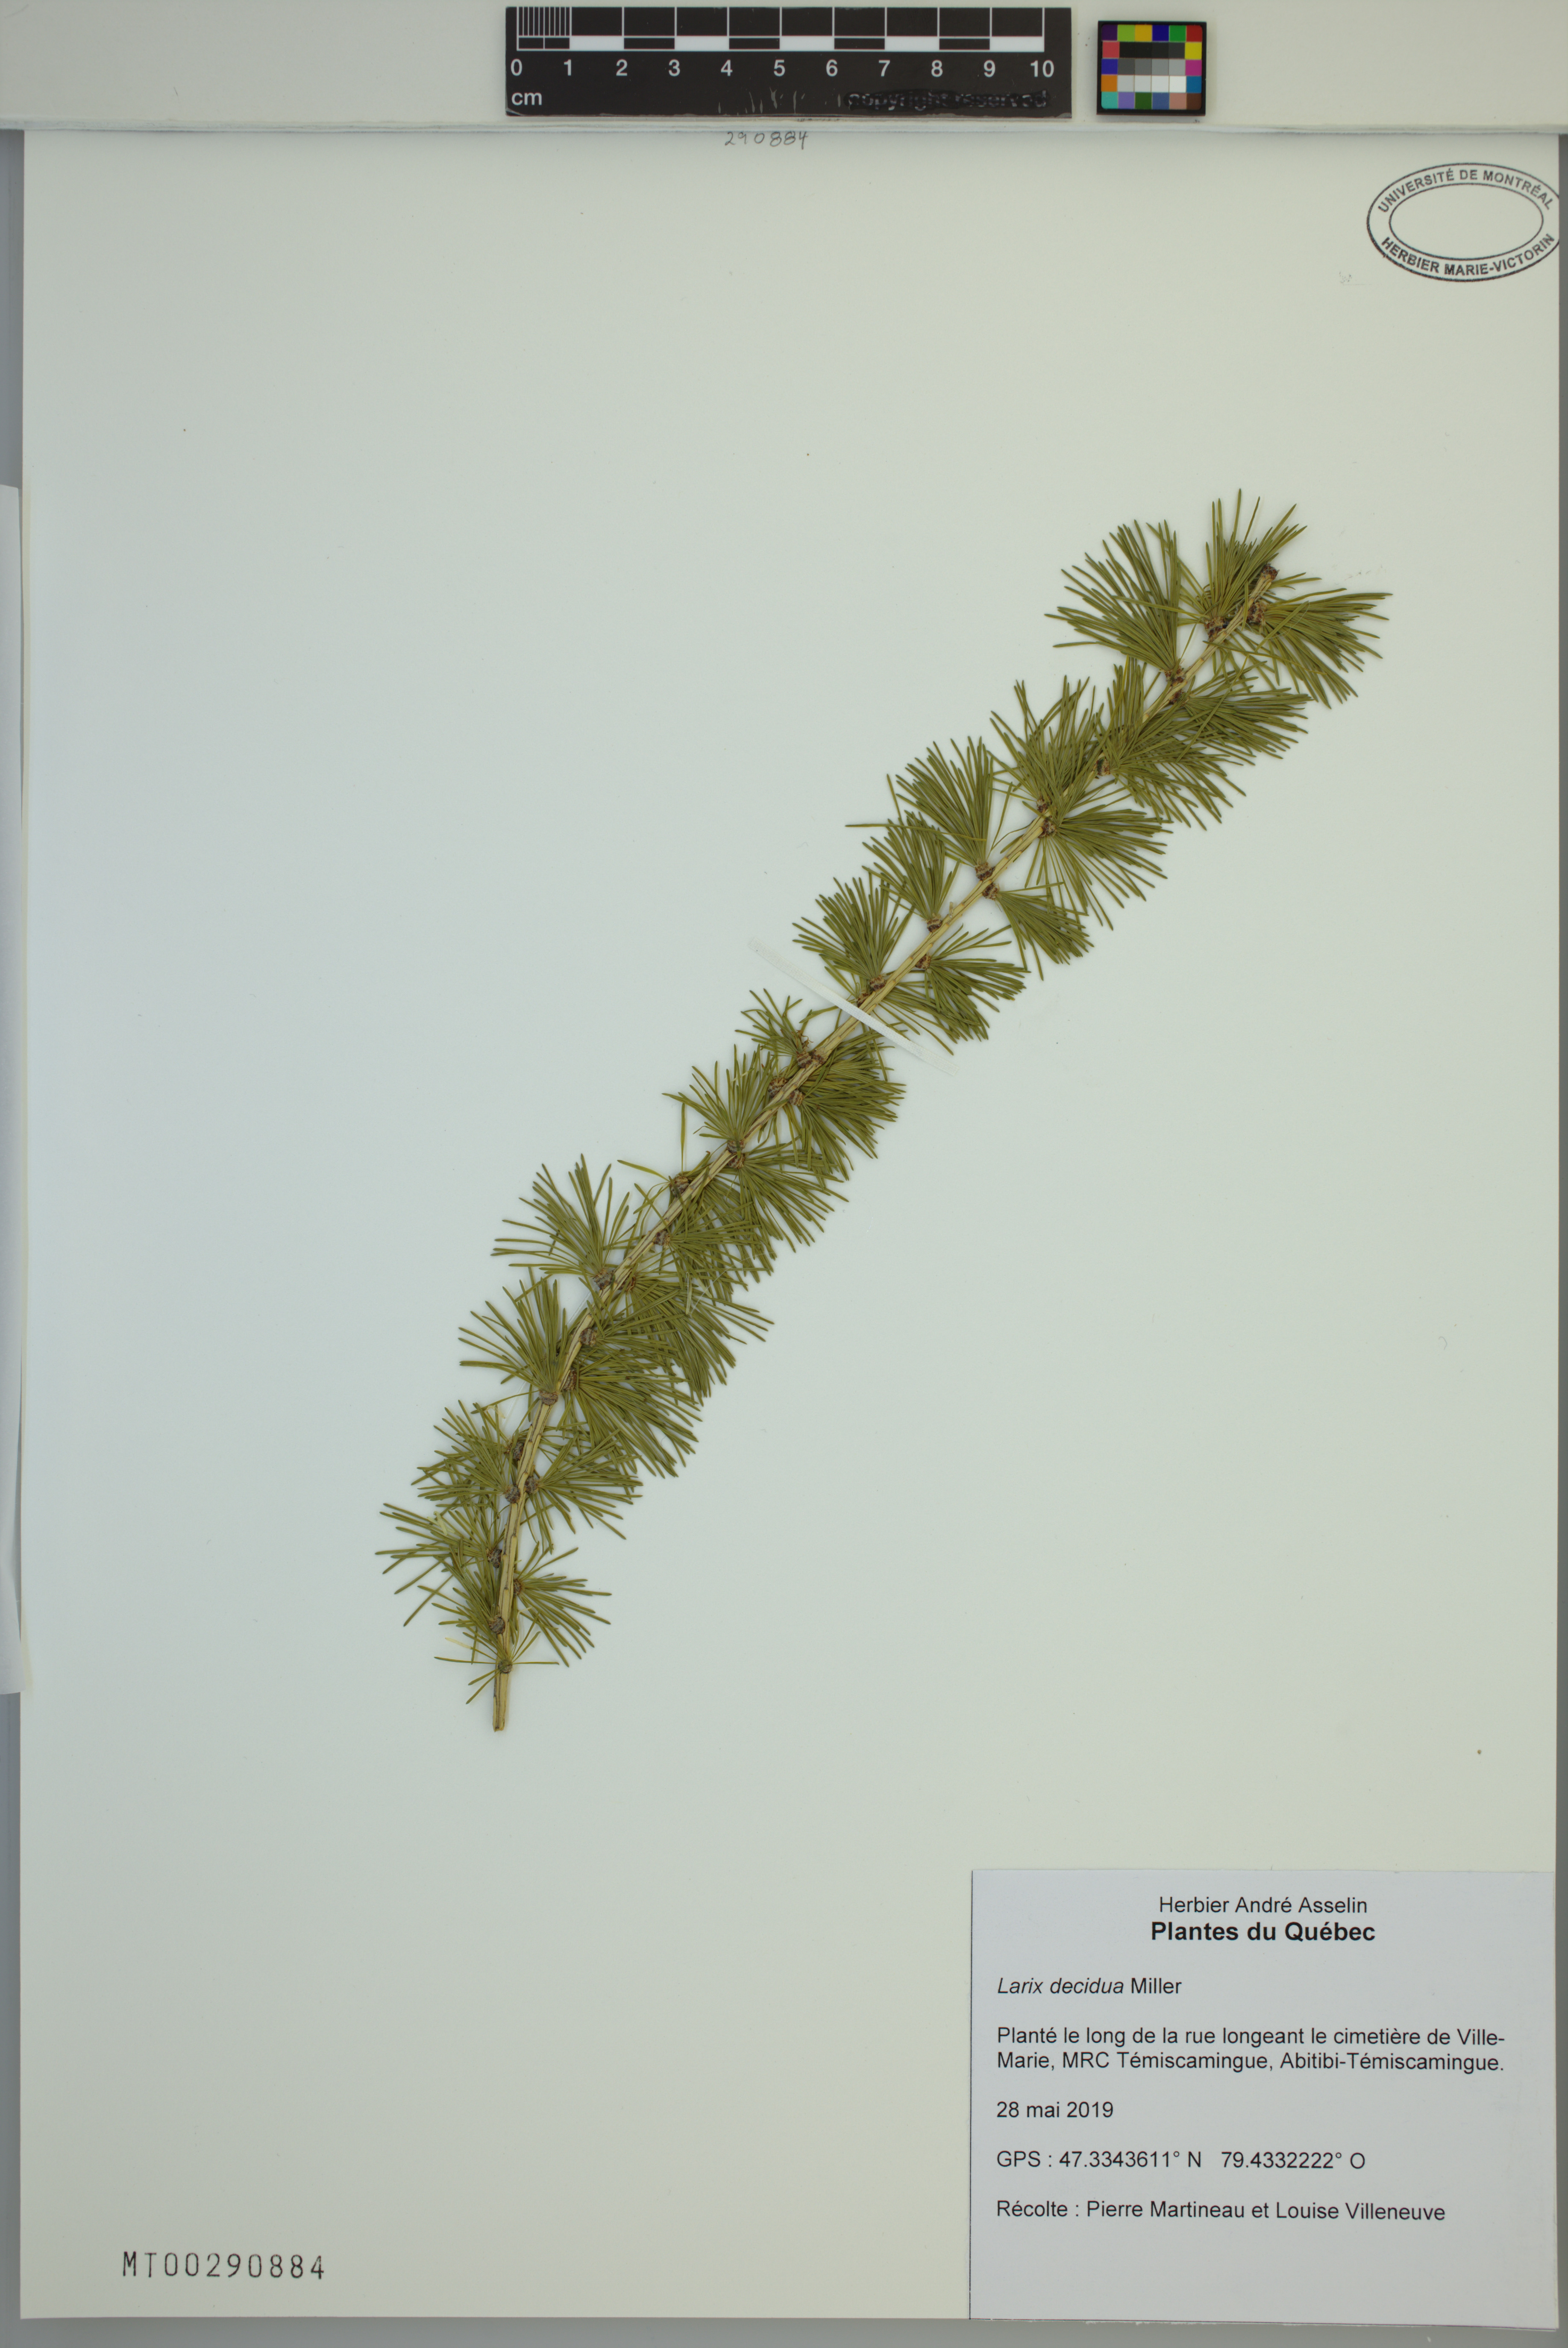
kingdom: Plantae
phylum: Tracheophyta
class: Pinopsida
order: Pinales
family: Pinaceae
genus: Larix
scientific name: Larix decidua
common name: European larch
